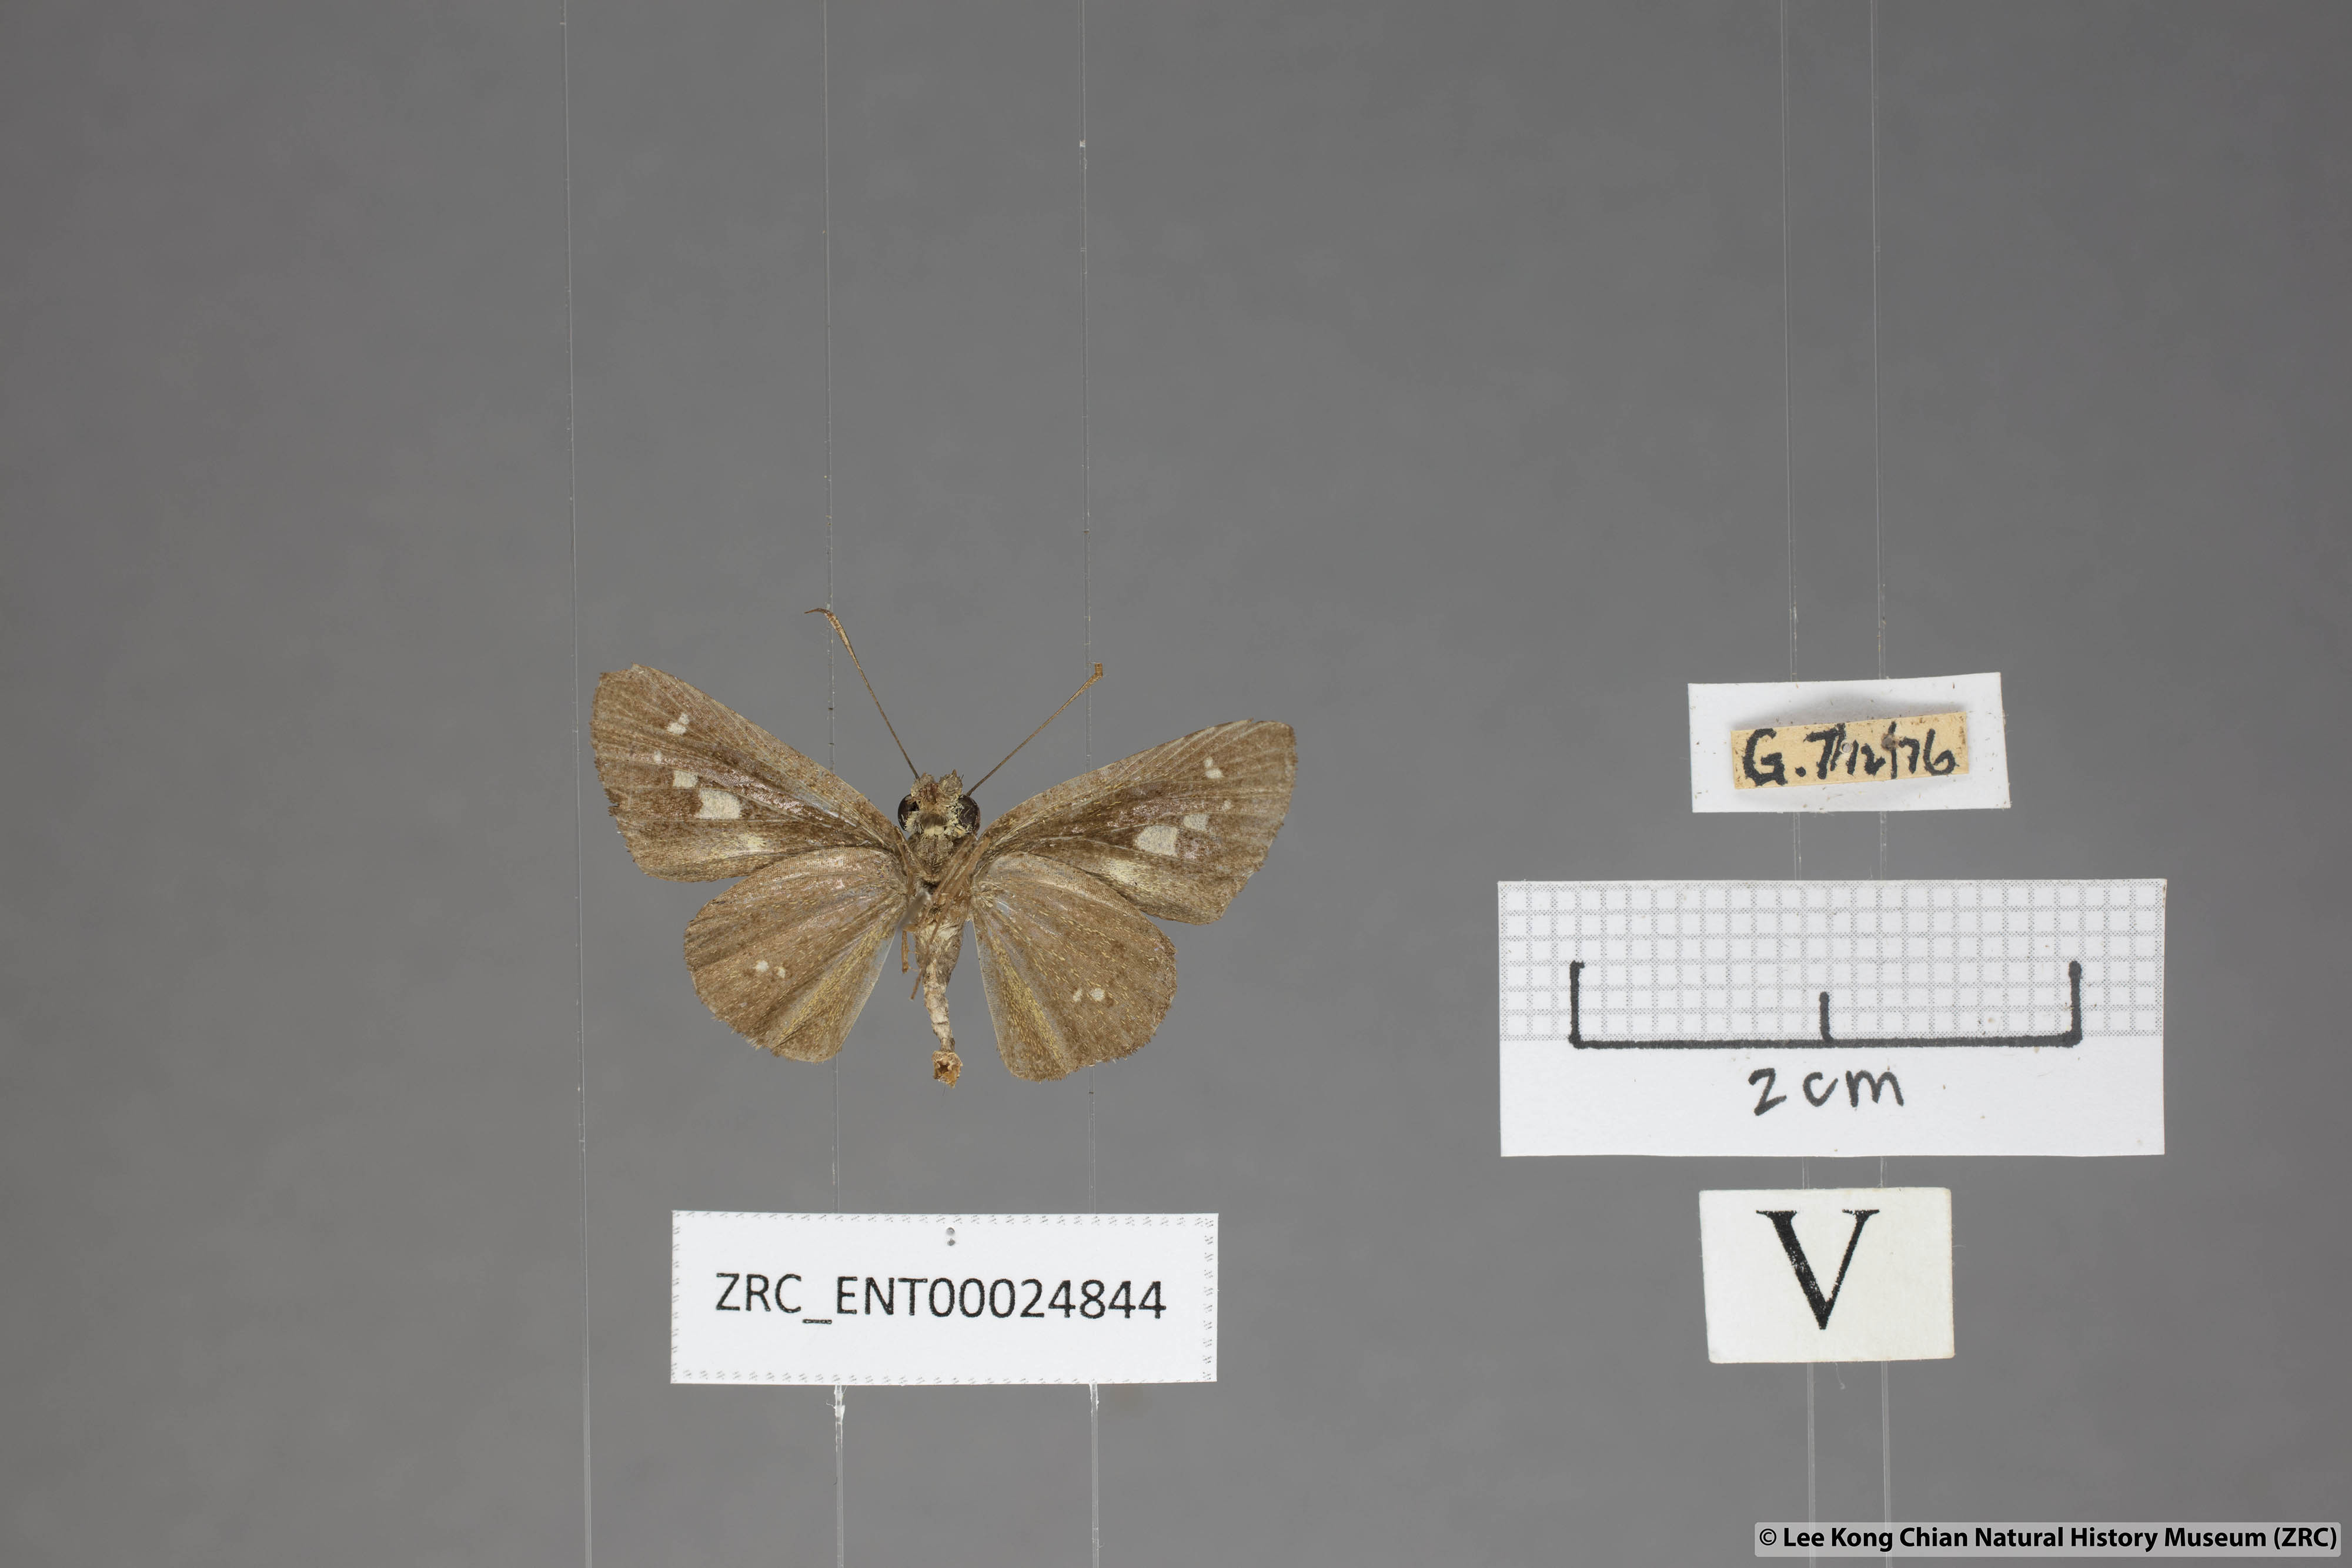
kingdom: Animalia
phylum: Arthropoda
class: Insecta
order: Lepidoptera
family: Hesperiidae
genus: Isma
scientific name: Isma bononia
